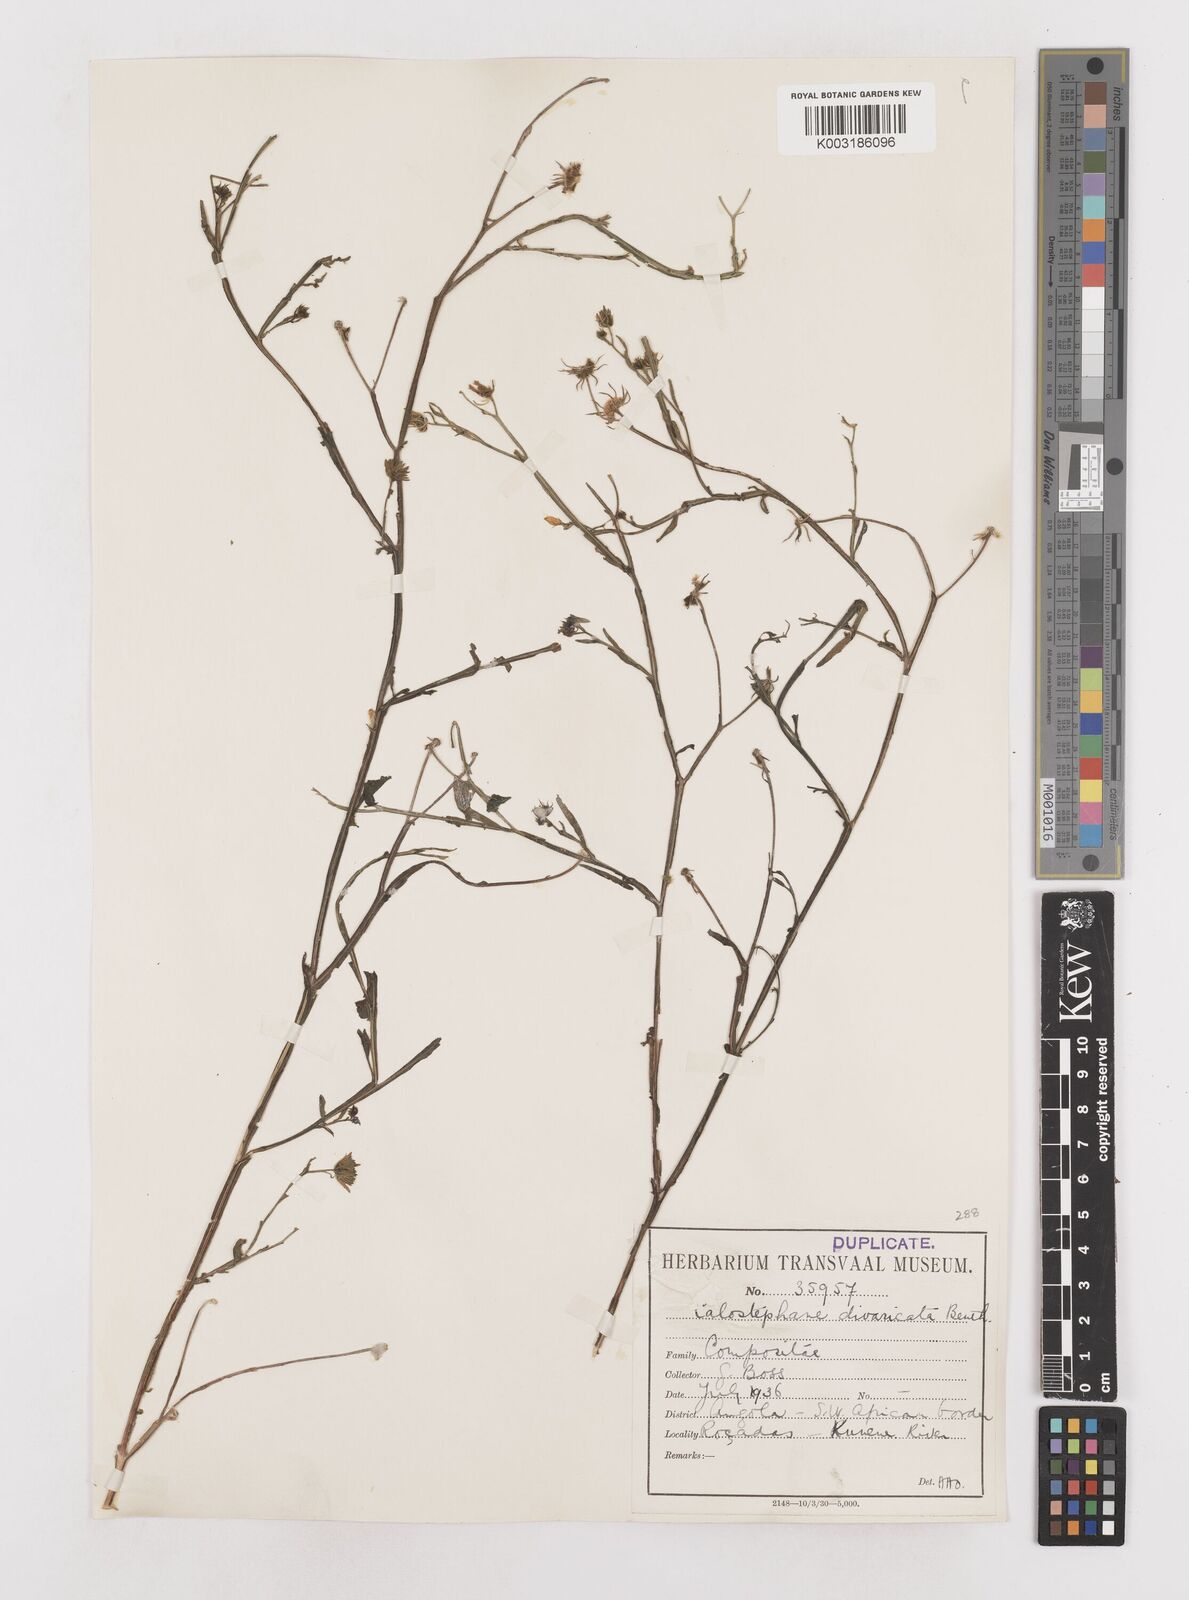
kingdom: Plantae
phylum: Tracheophyta
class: Magnoliopsida
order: Asterales
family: Asteraceae
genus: Calostephane
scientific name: Calostephane divaricata
